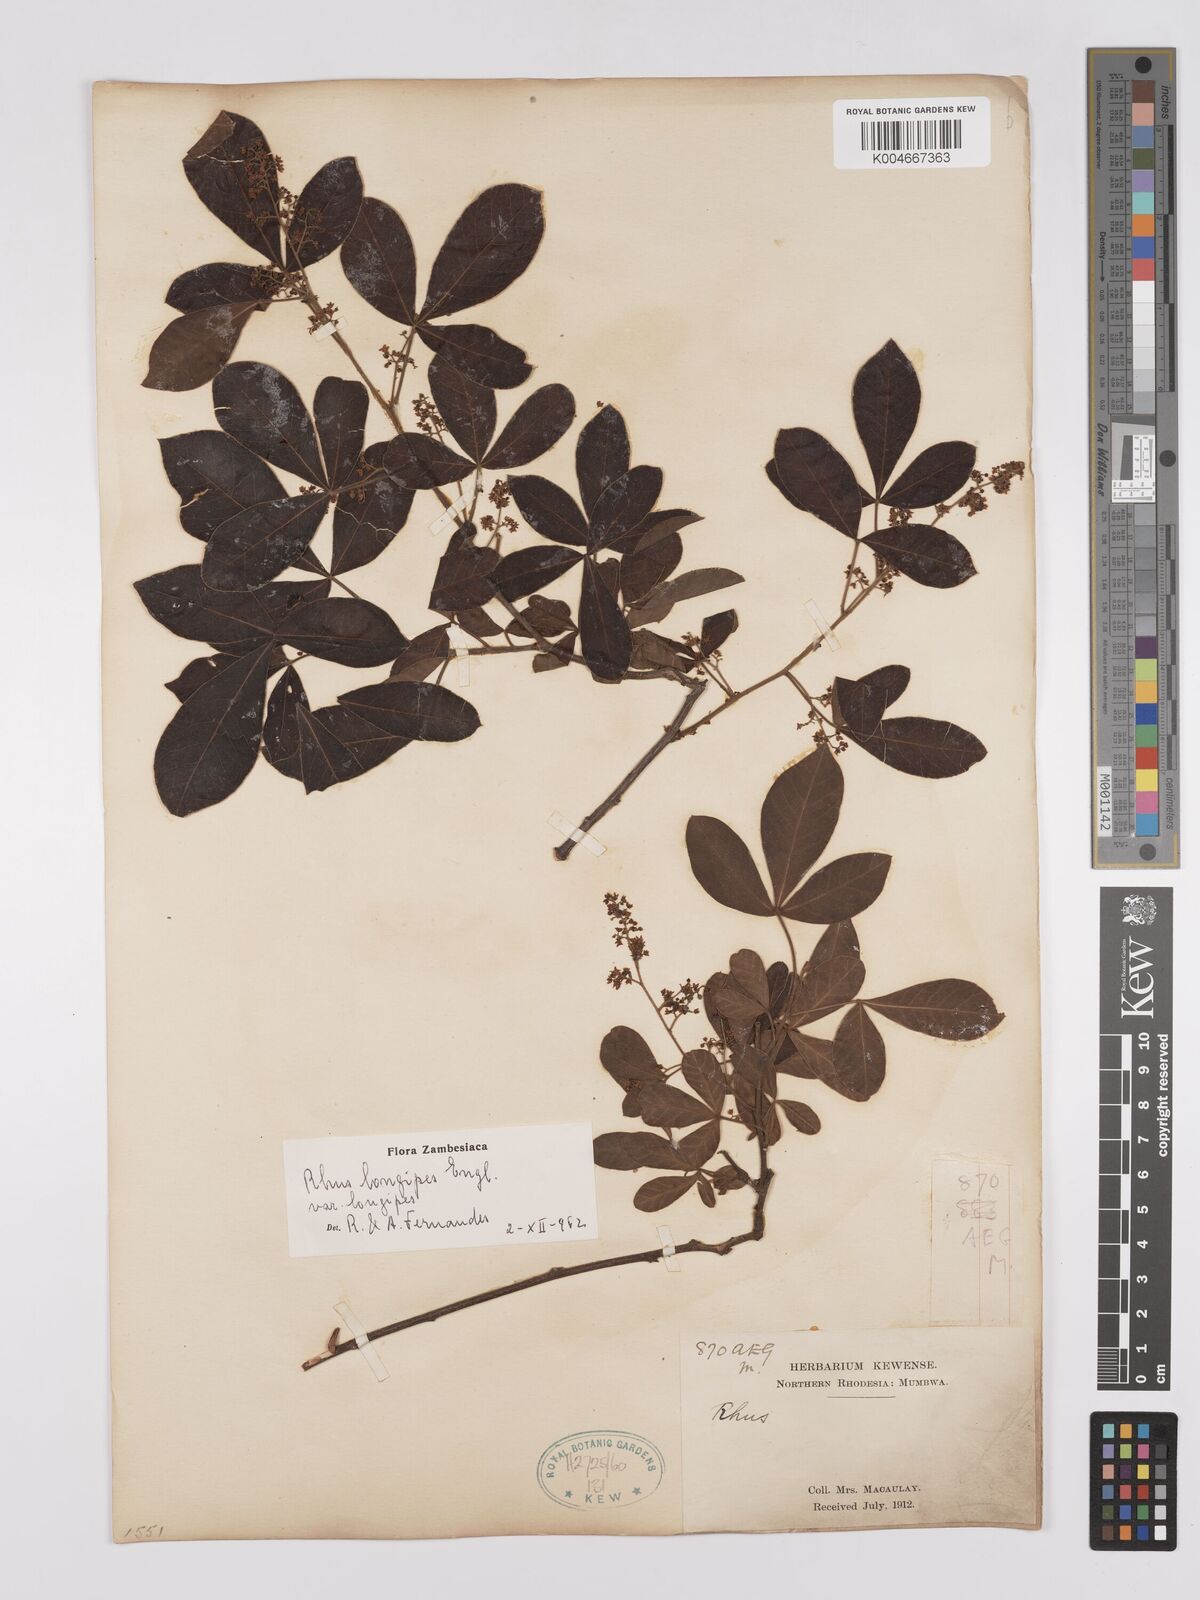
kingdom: Plantae
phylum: Tracheophyta
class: Magnoliopsida
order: Sapindales
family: Anacardiaceae
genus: Searsia
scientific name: Searsia longipes
